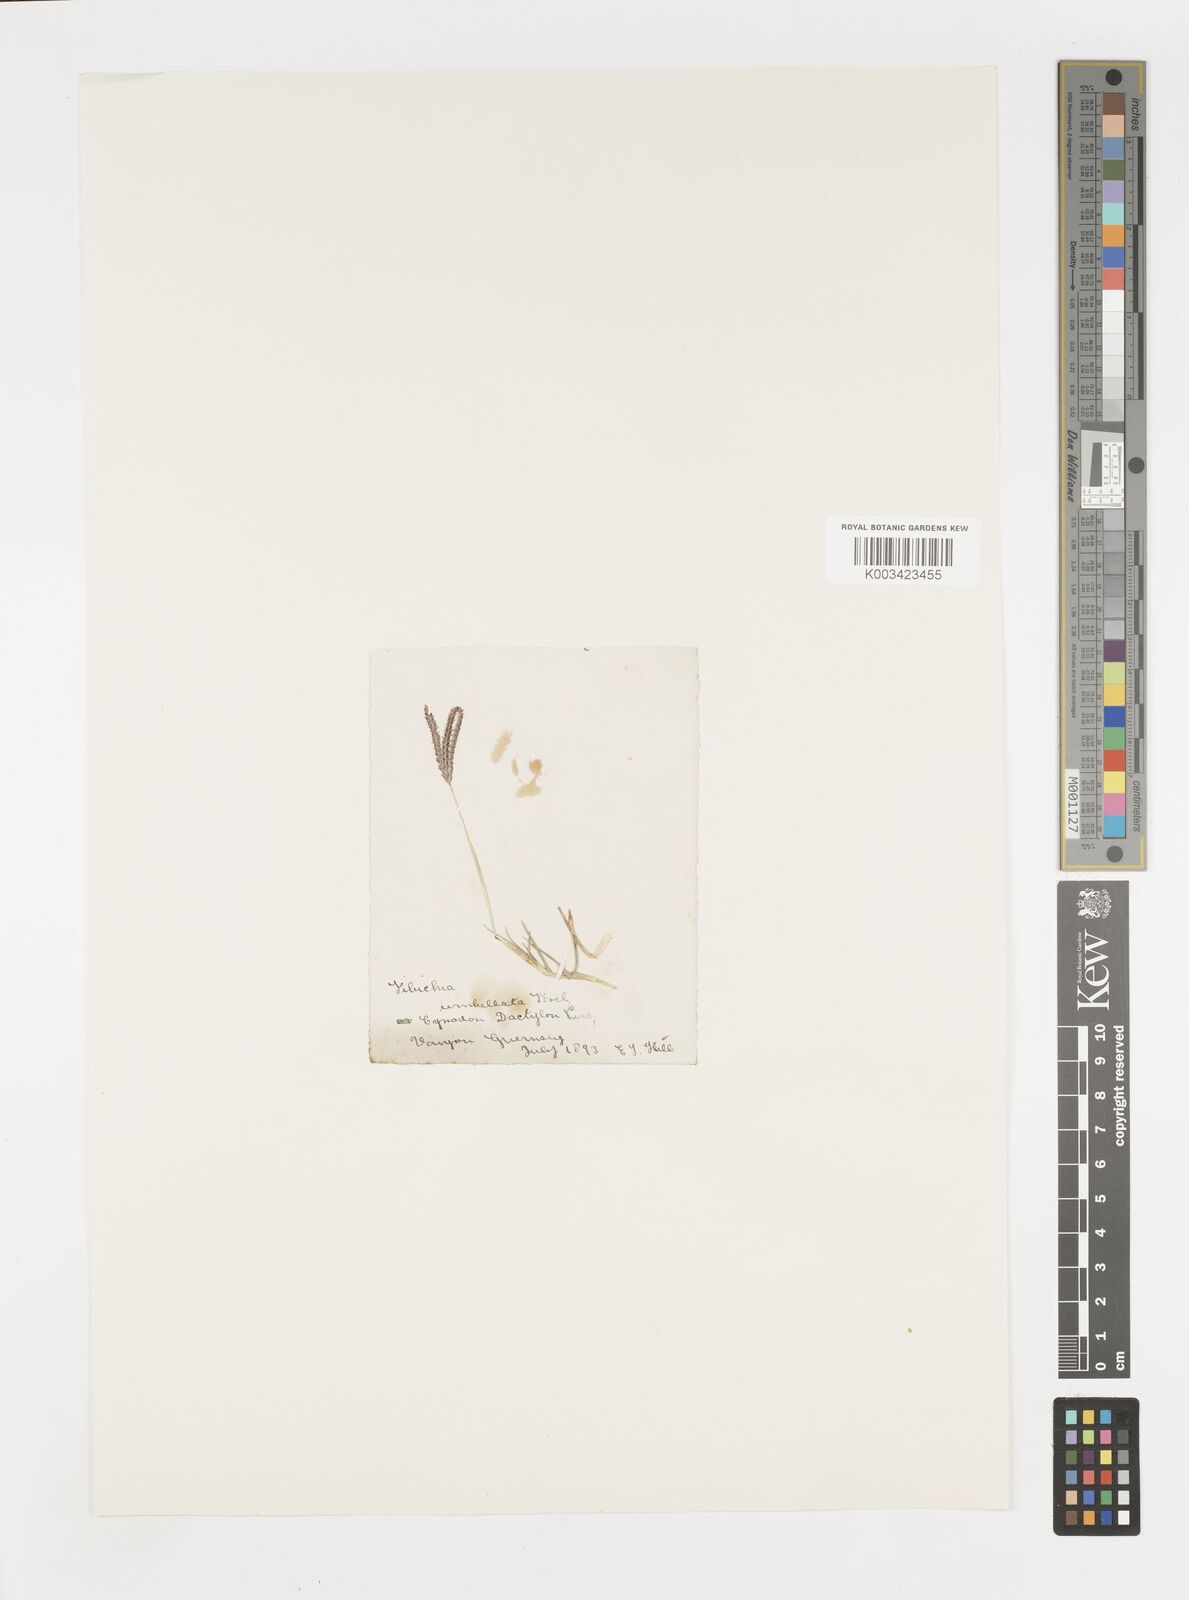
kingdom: Plantae
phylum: Tracheophyta
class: Liliopsida
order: Poales
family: Poaceae
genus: Cynodon
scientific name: Cynodon dactylon
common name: Bermuda grass
